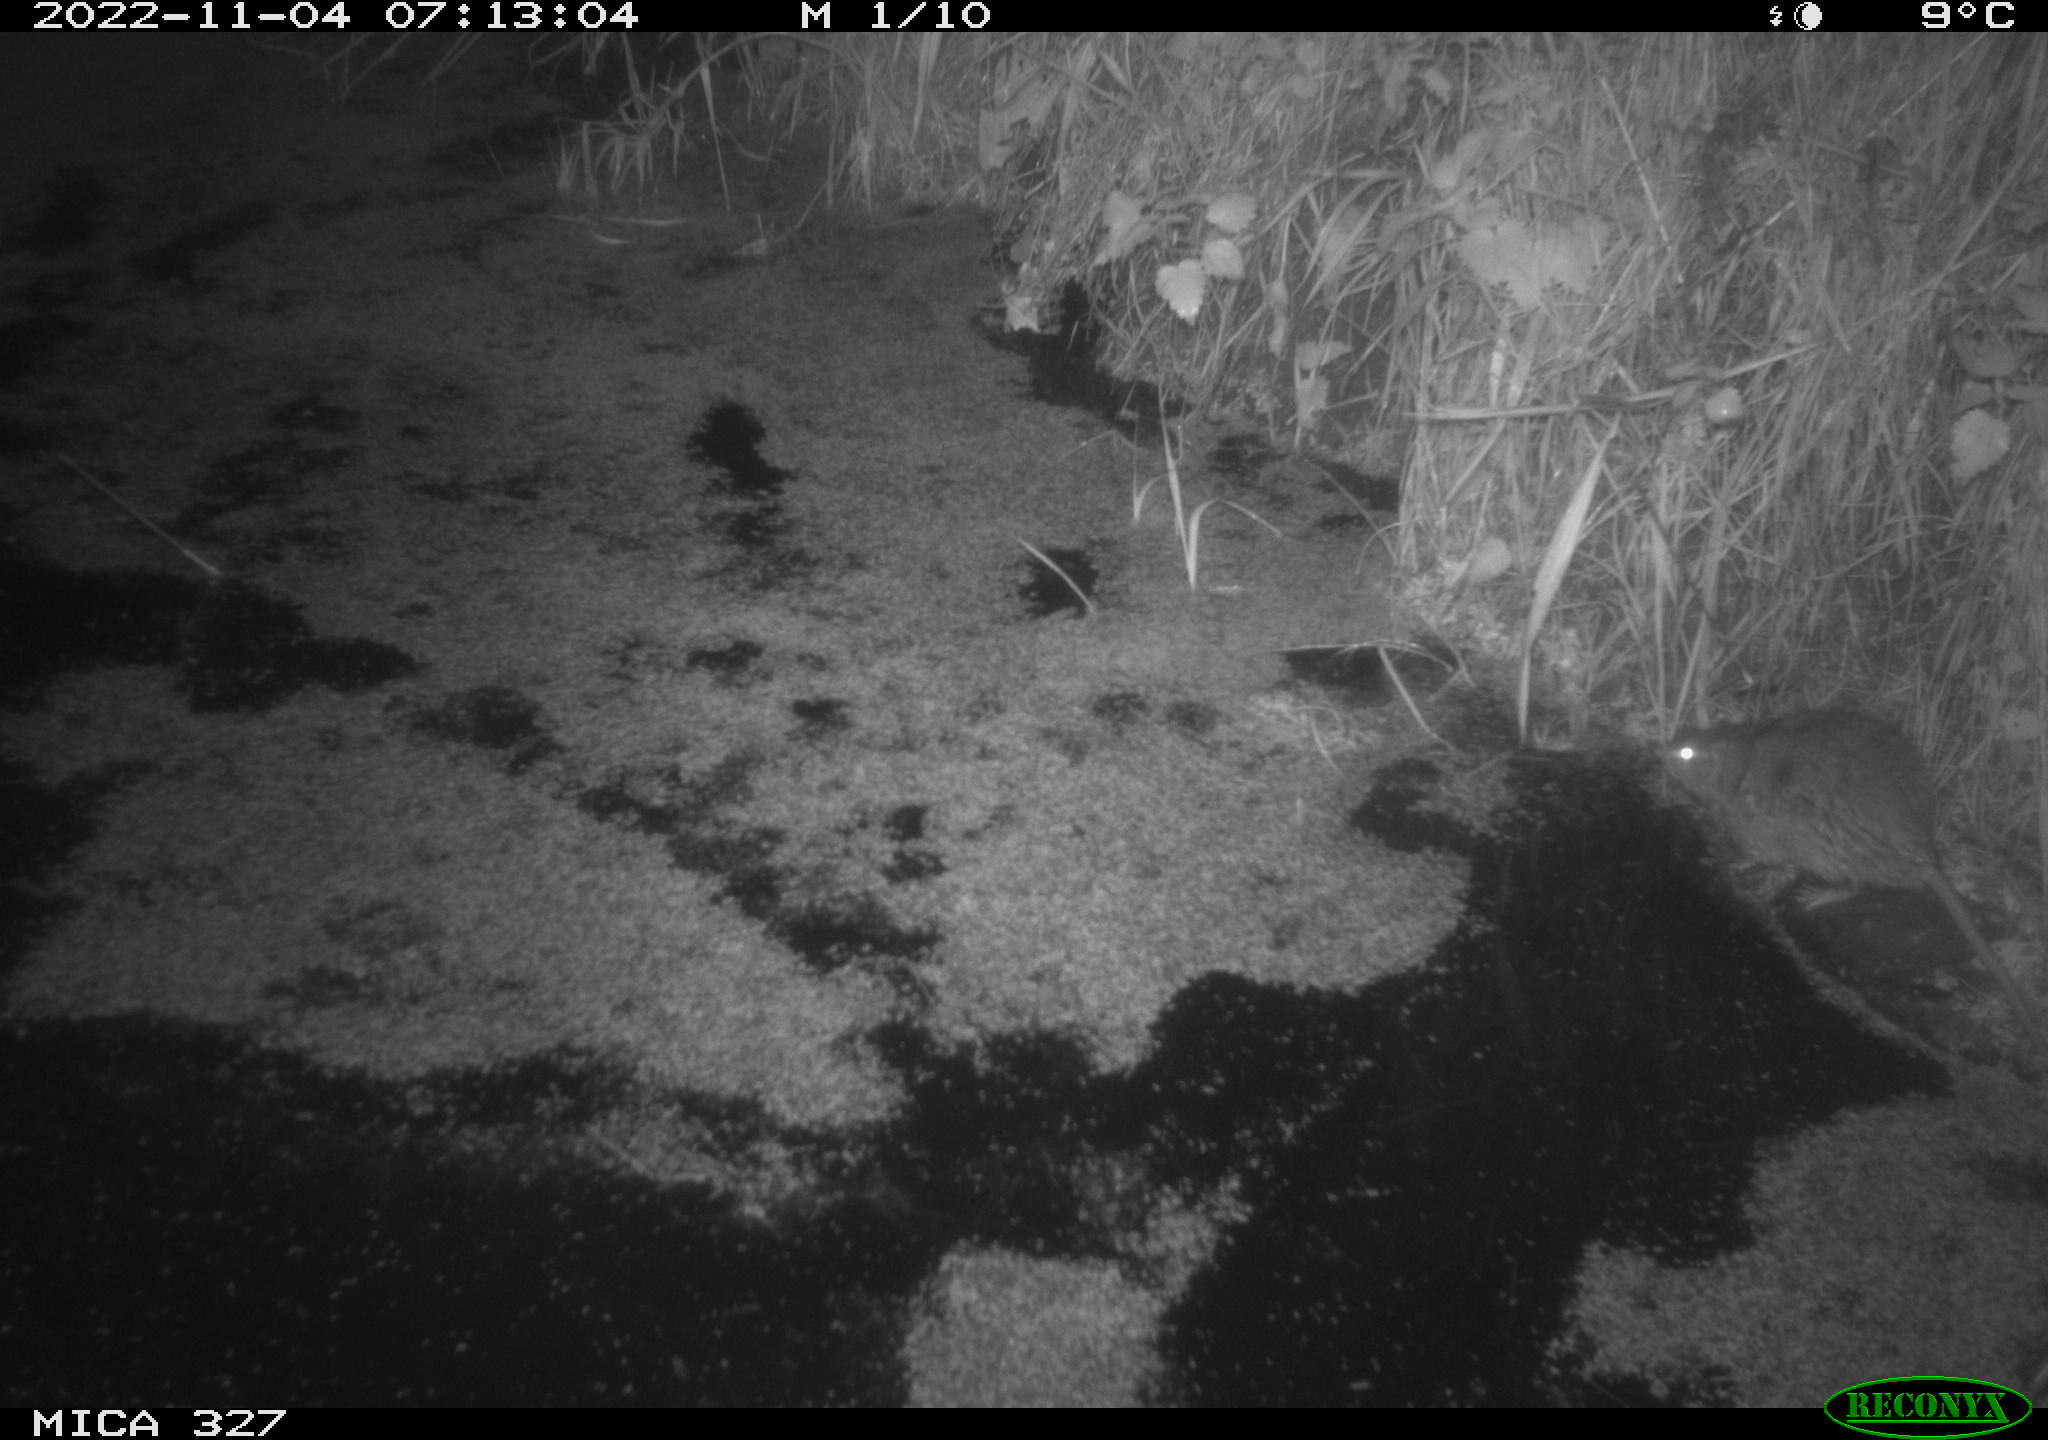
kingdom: Animalia
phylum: Chordata
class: Mammalia
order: Rodentia
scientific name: Rodentia
